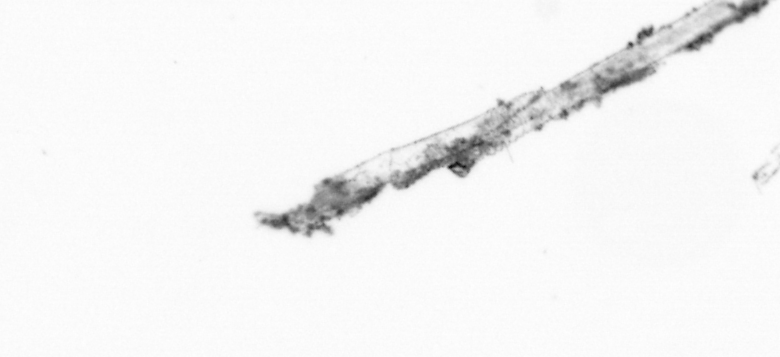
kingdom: Chromista
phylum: Ochrophyta
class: Bacillariophyceae
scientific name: Bacillariophyceae
